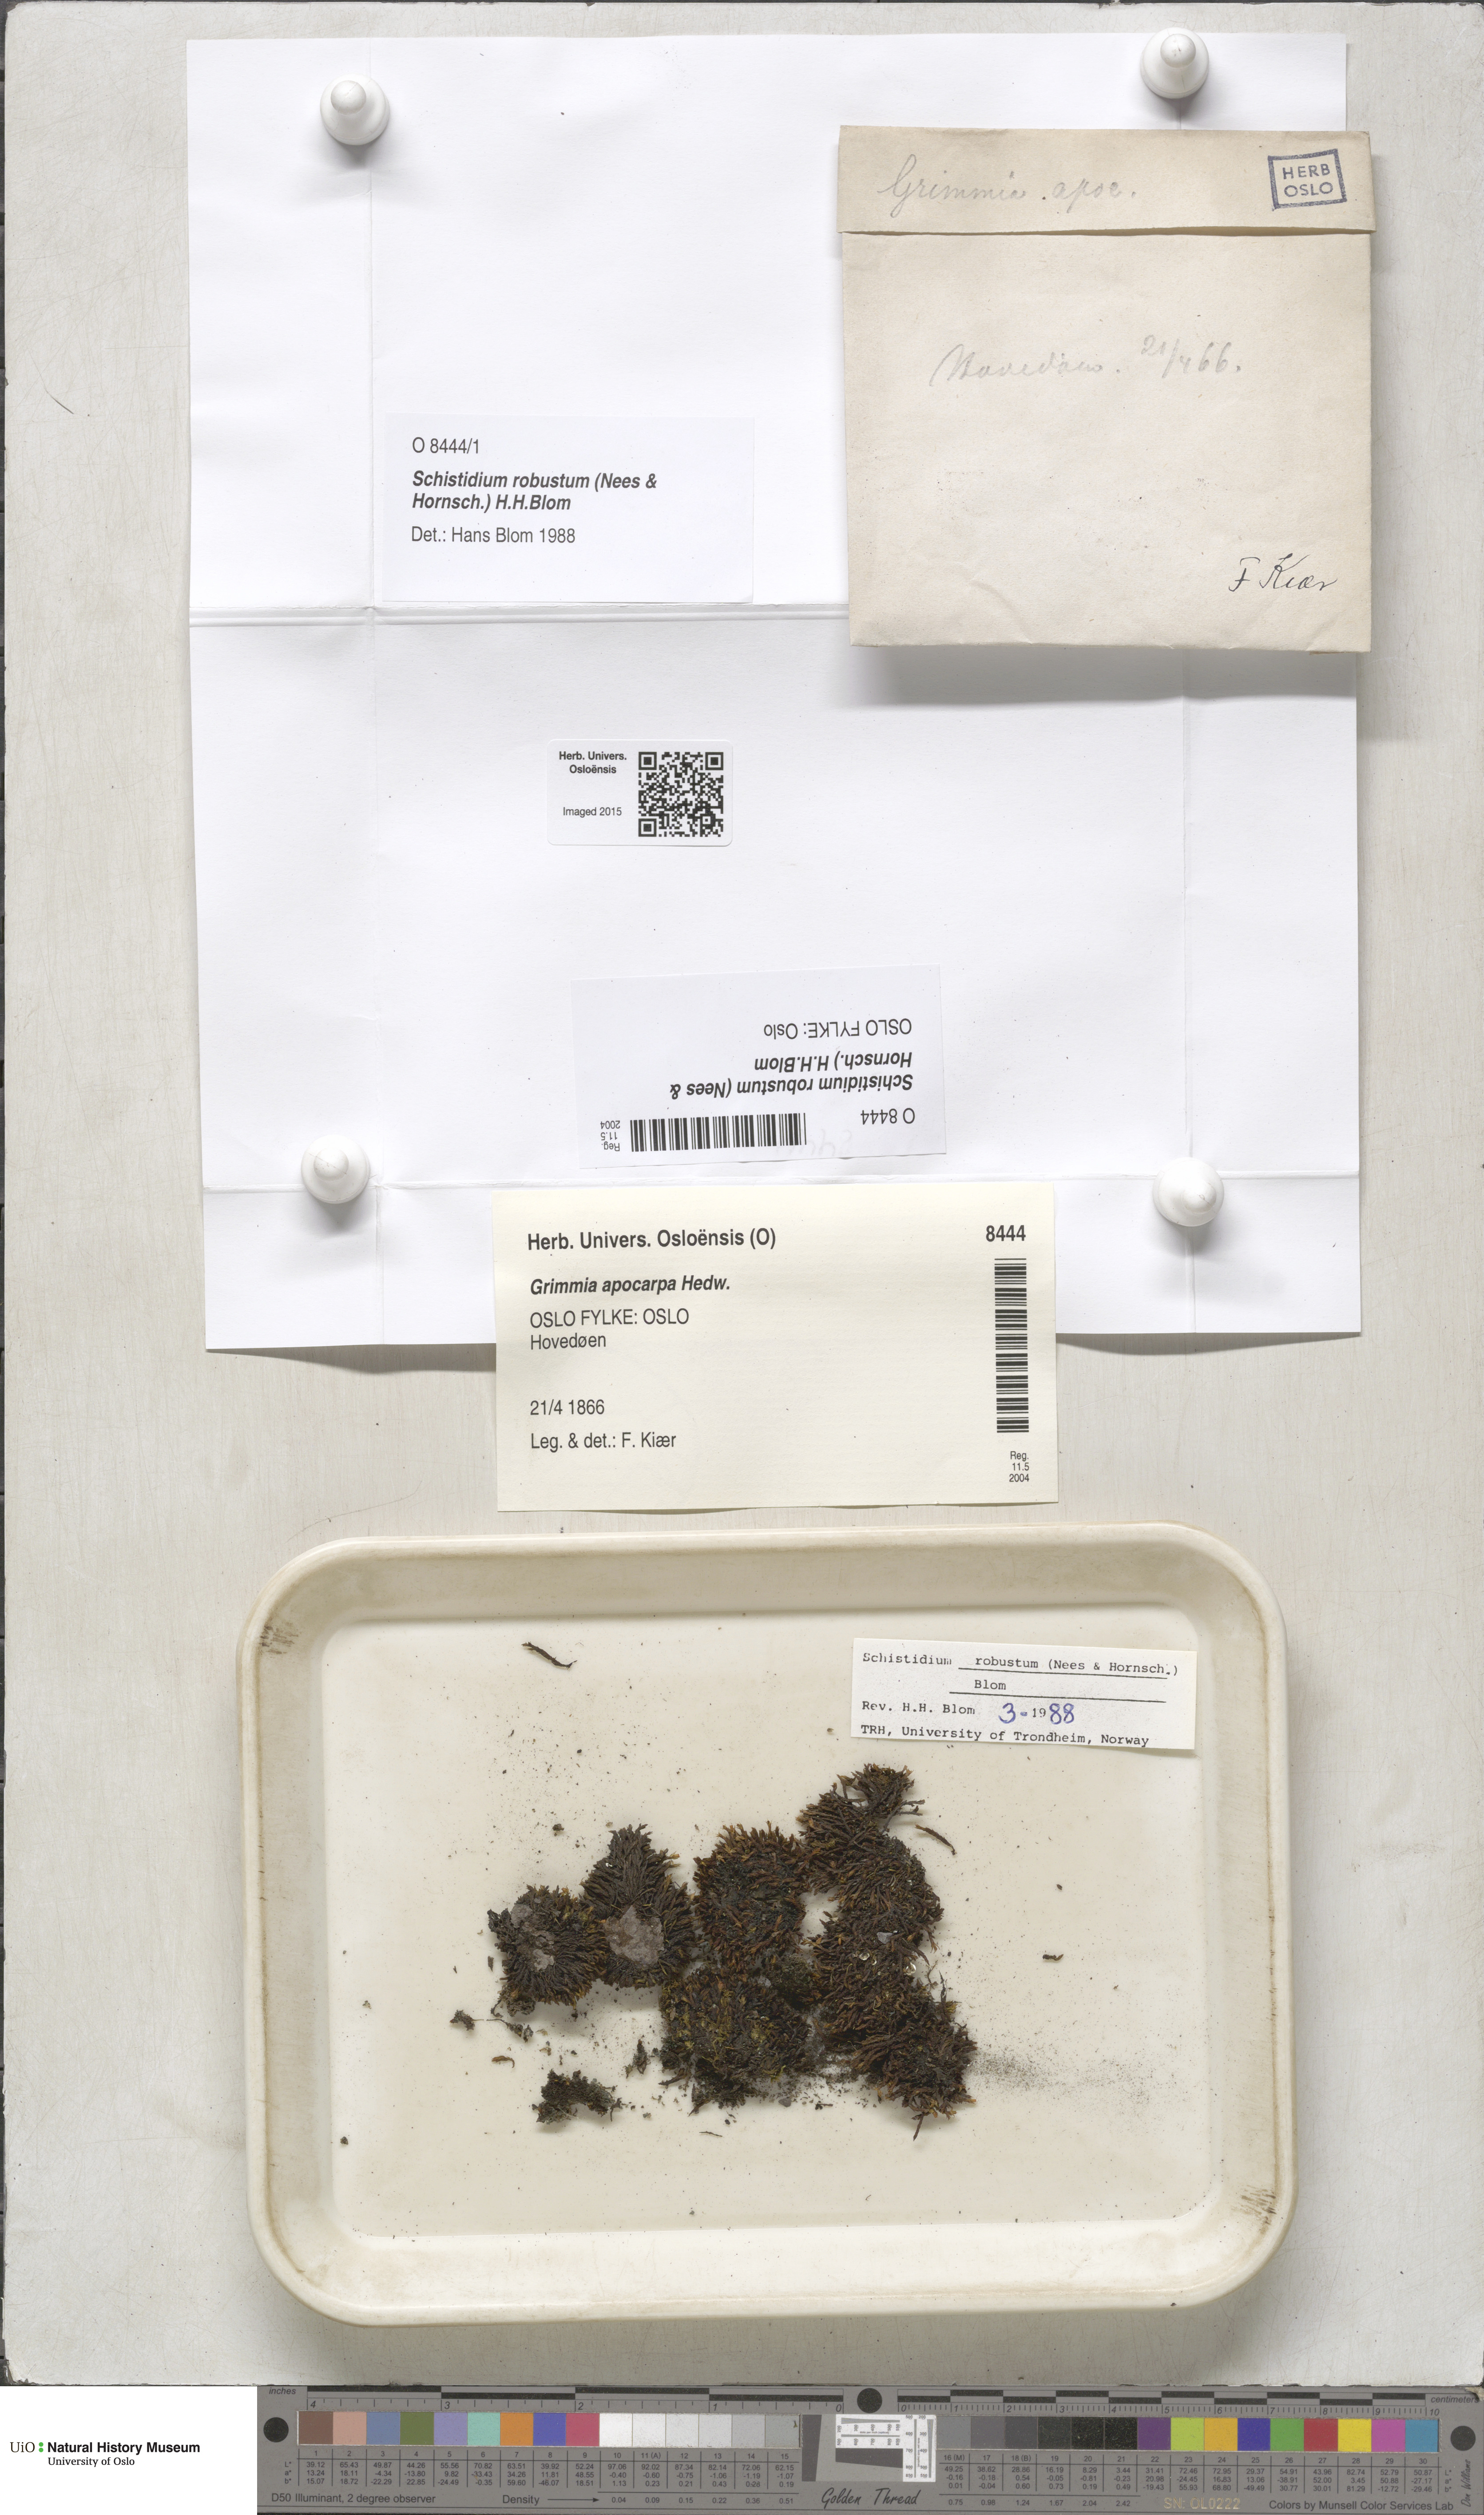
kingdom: Plantae
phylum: Bryophyta
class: Bryopsida
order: Grimmiales
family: Grimmiaceae
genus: Schistidium
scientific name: Schistidium robustum
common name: Robust bloom moss
